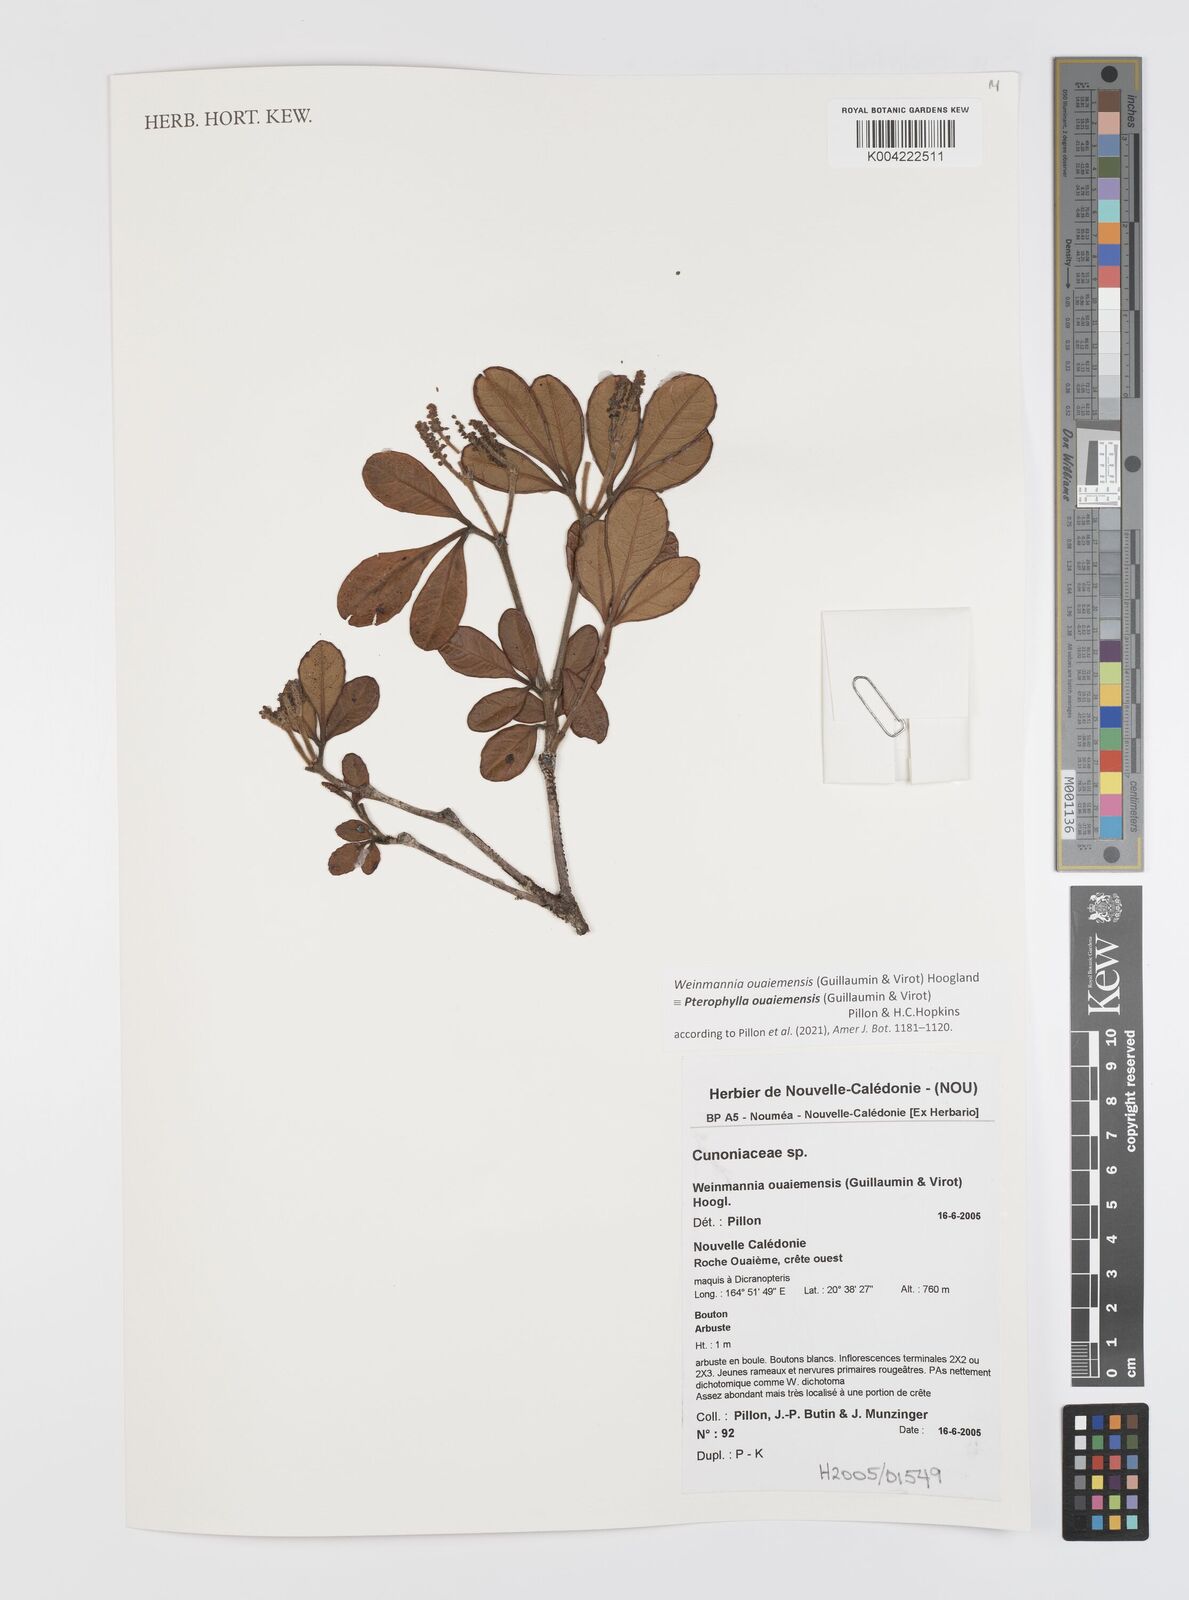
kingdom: Plantae
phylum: Tracheophyta
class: Magnoliopsida
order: Oxalidales
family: Cunoniaceae
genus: Pterophylla
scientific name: Pterophylla ouaiemensis
